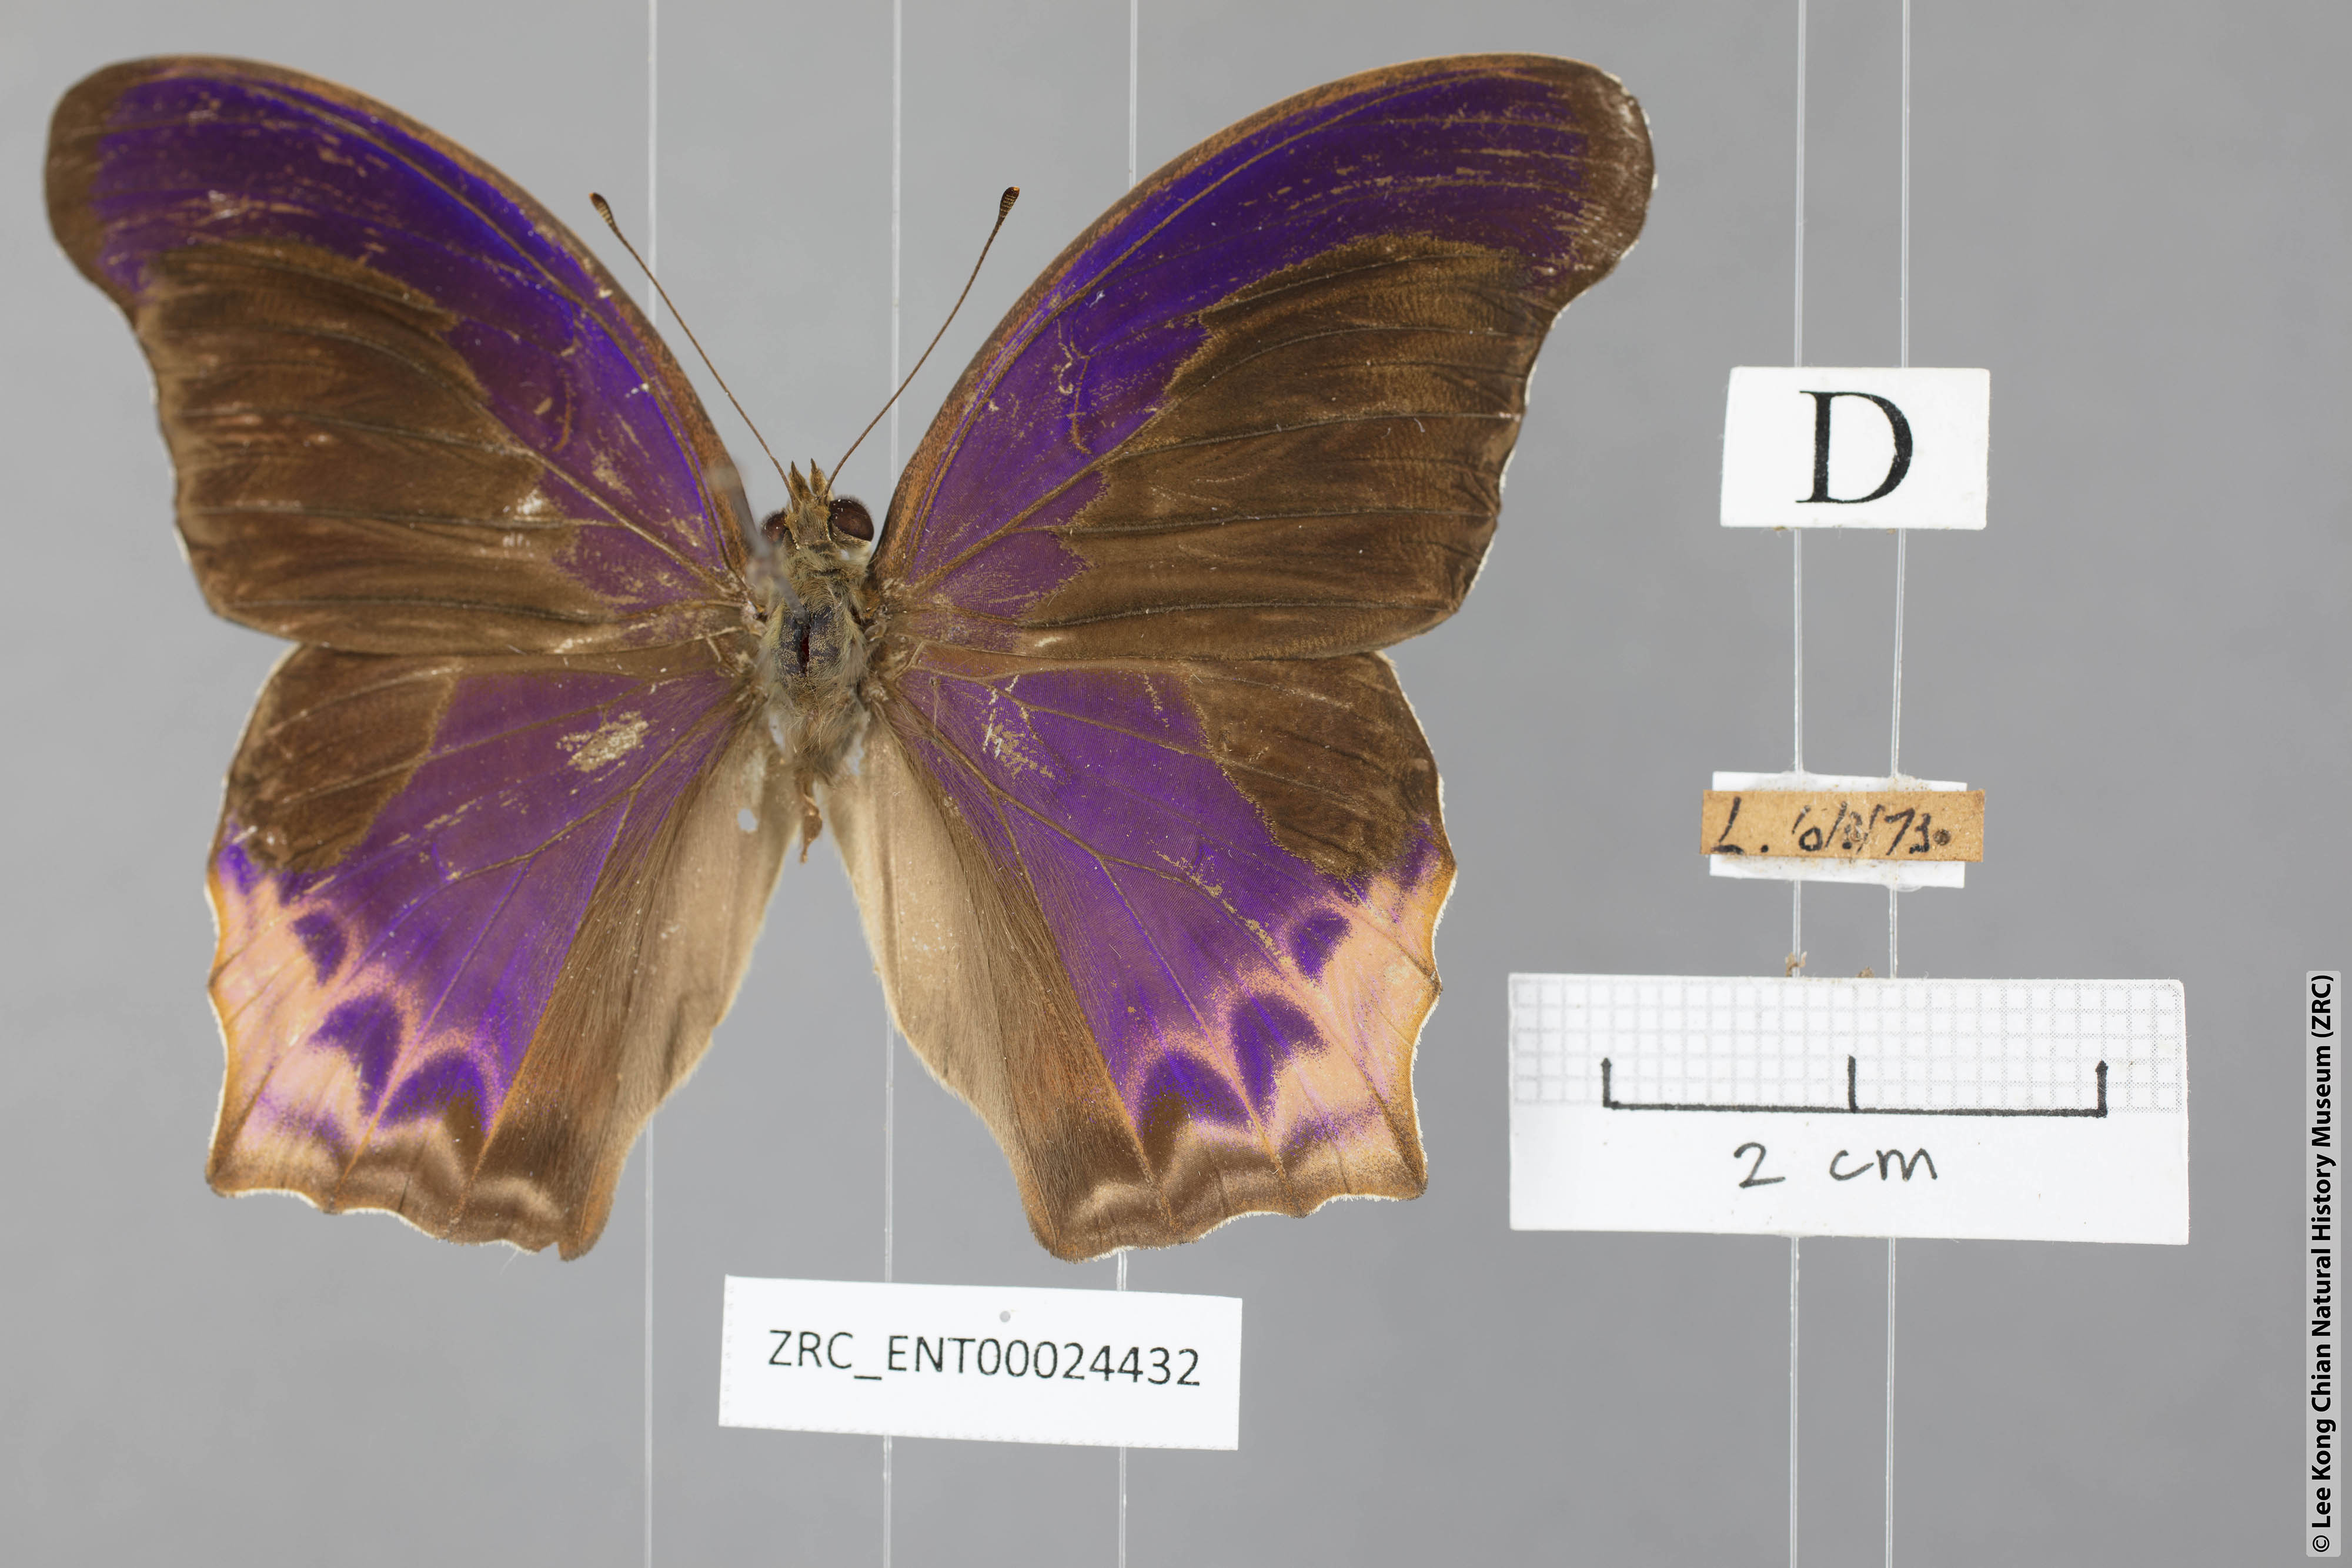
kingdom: Animalia
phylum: Arthropoda
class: Insecta
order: Lepidoptera
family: Nymphalidae
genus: Terinos
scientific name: Terinos clarissa
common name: Malayan assyrian
